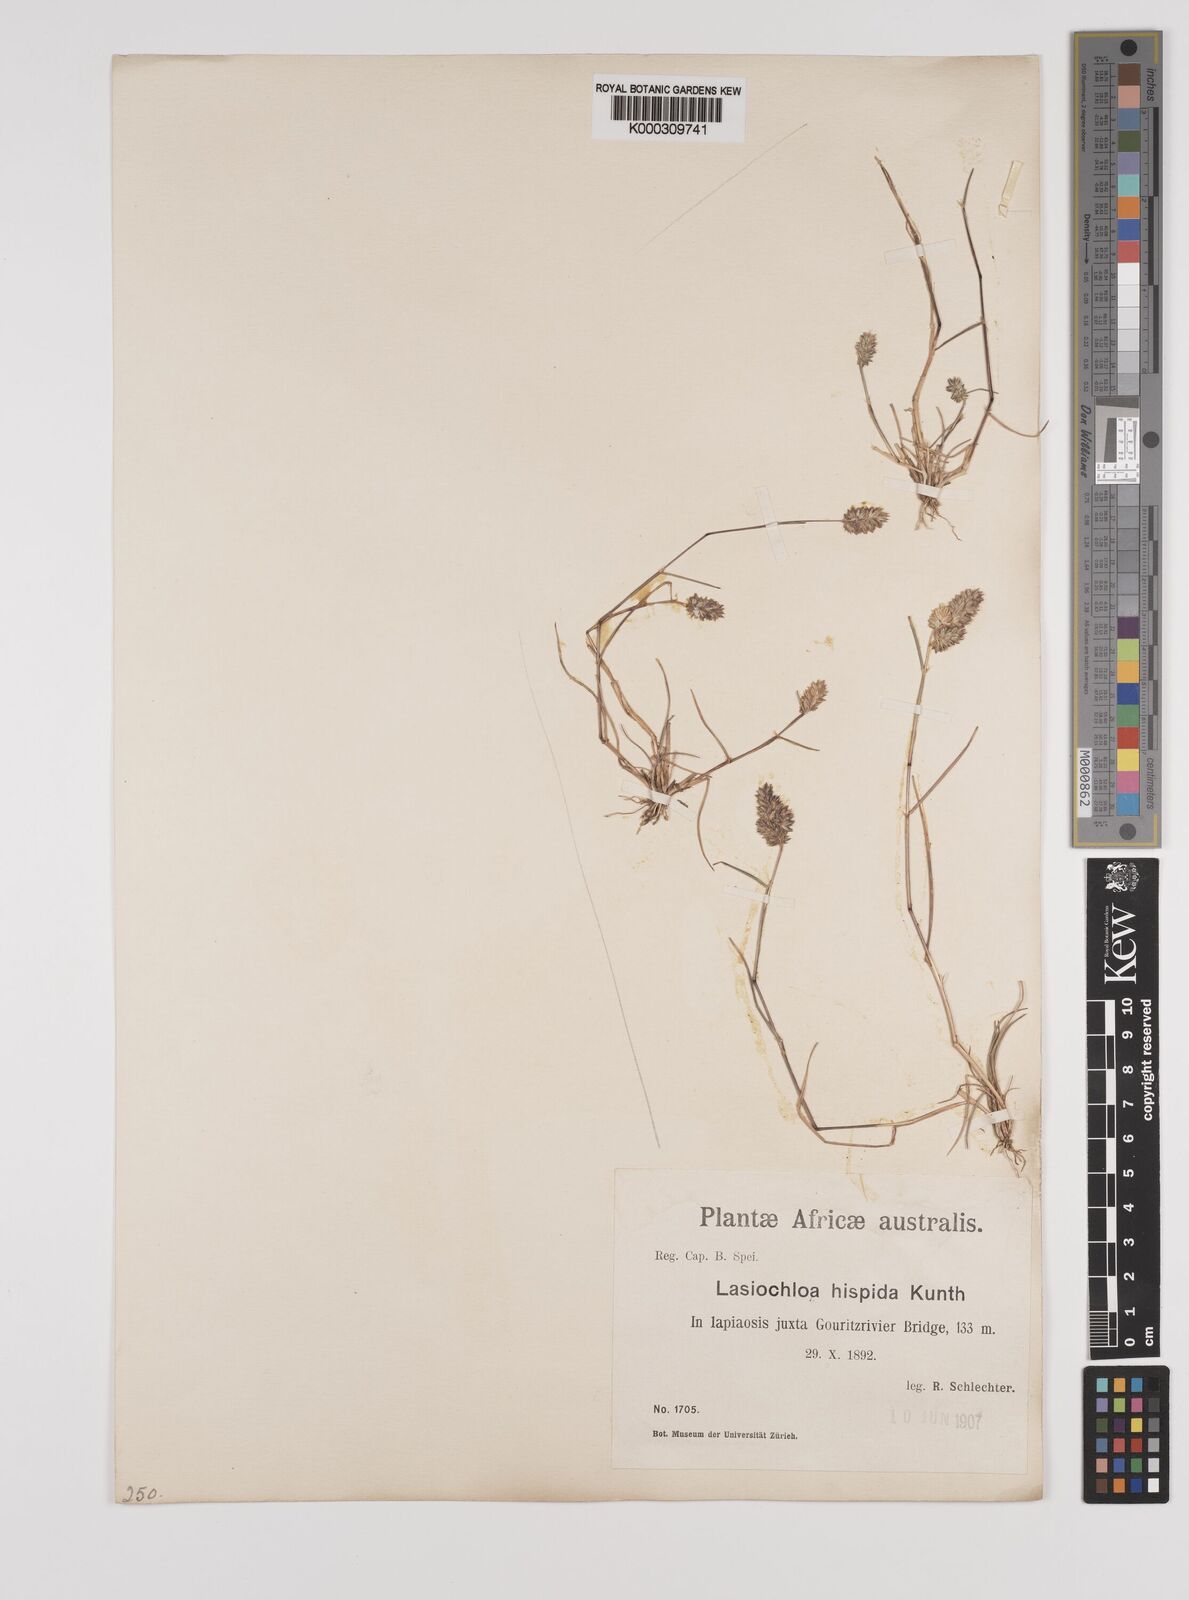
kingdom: Plantae
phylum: Tracheophyta
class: Liliopsida
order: Poales
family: Poaceae
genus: Tribolium
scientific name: Tribolium hispidum
